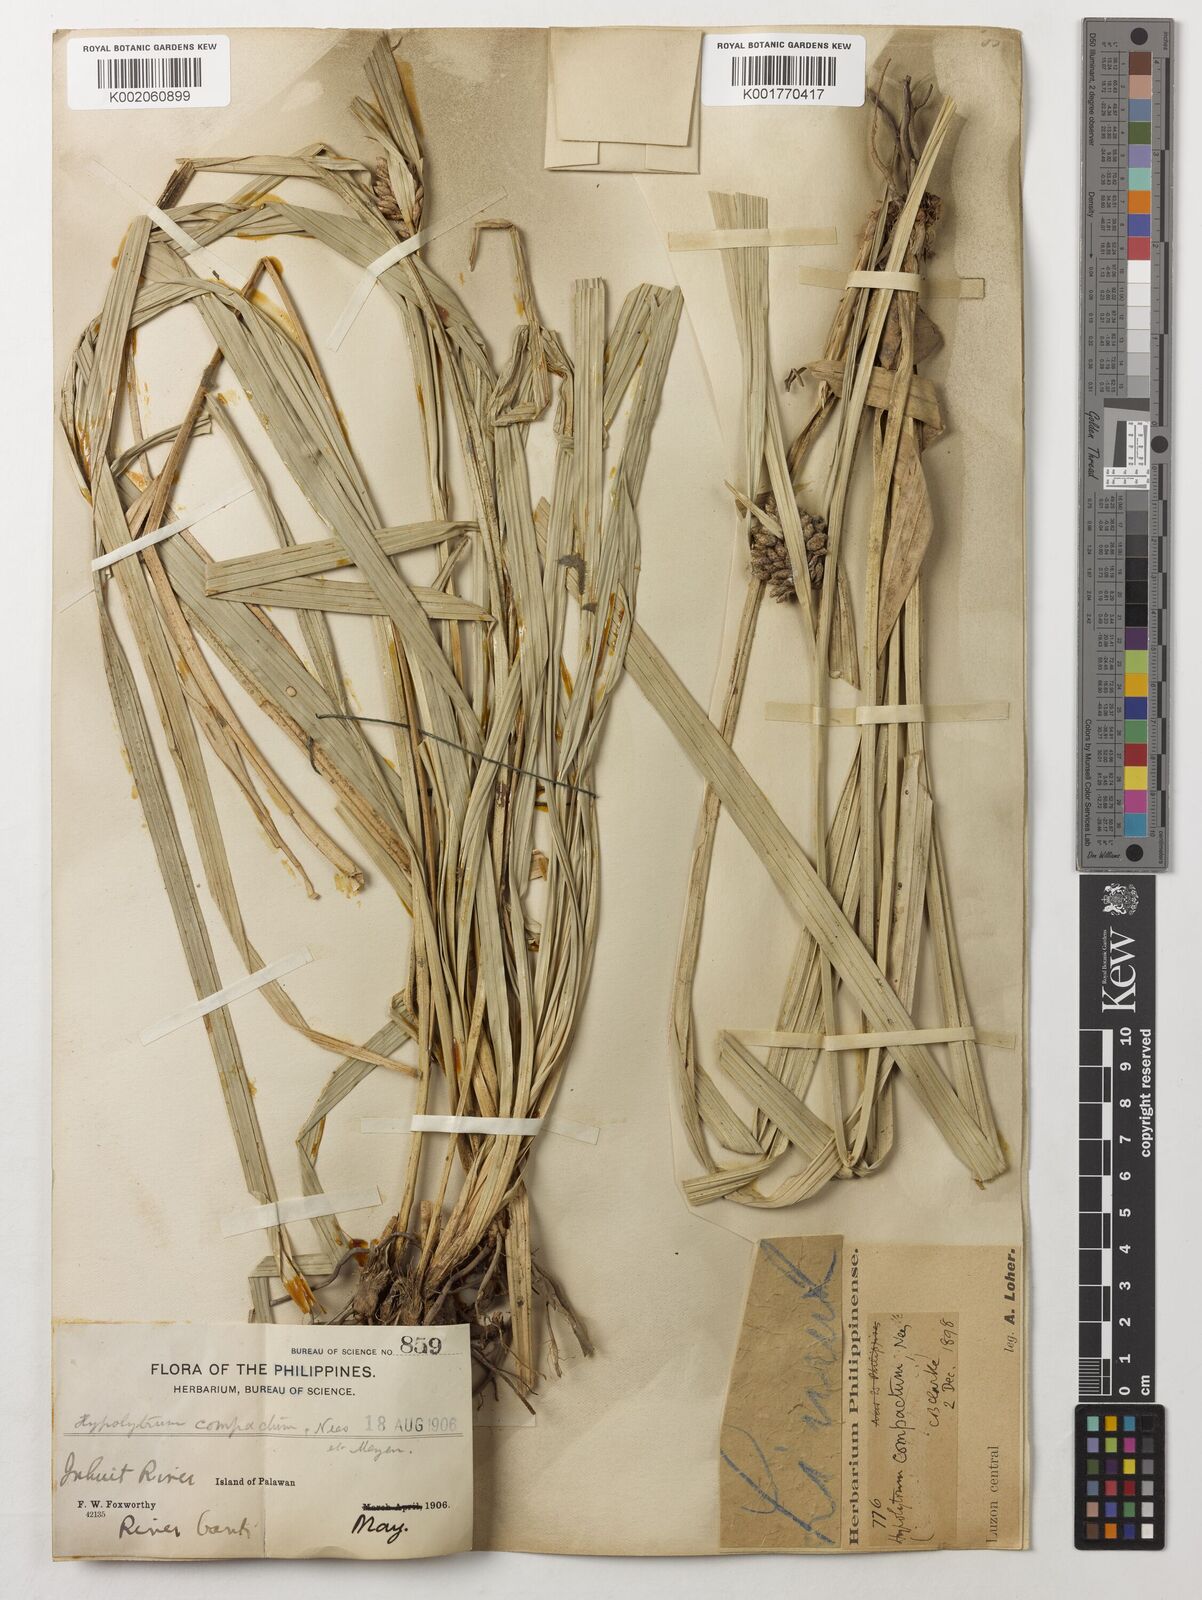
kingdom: Plantae
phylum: Tracheophyta
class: Liliopsida
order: Poales
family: Cyperaceae
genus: Hypolytrum
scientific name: Hypolytrum compactum
